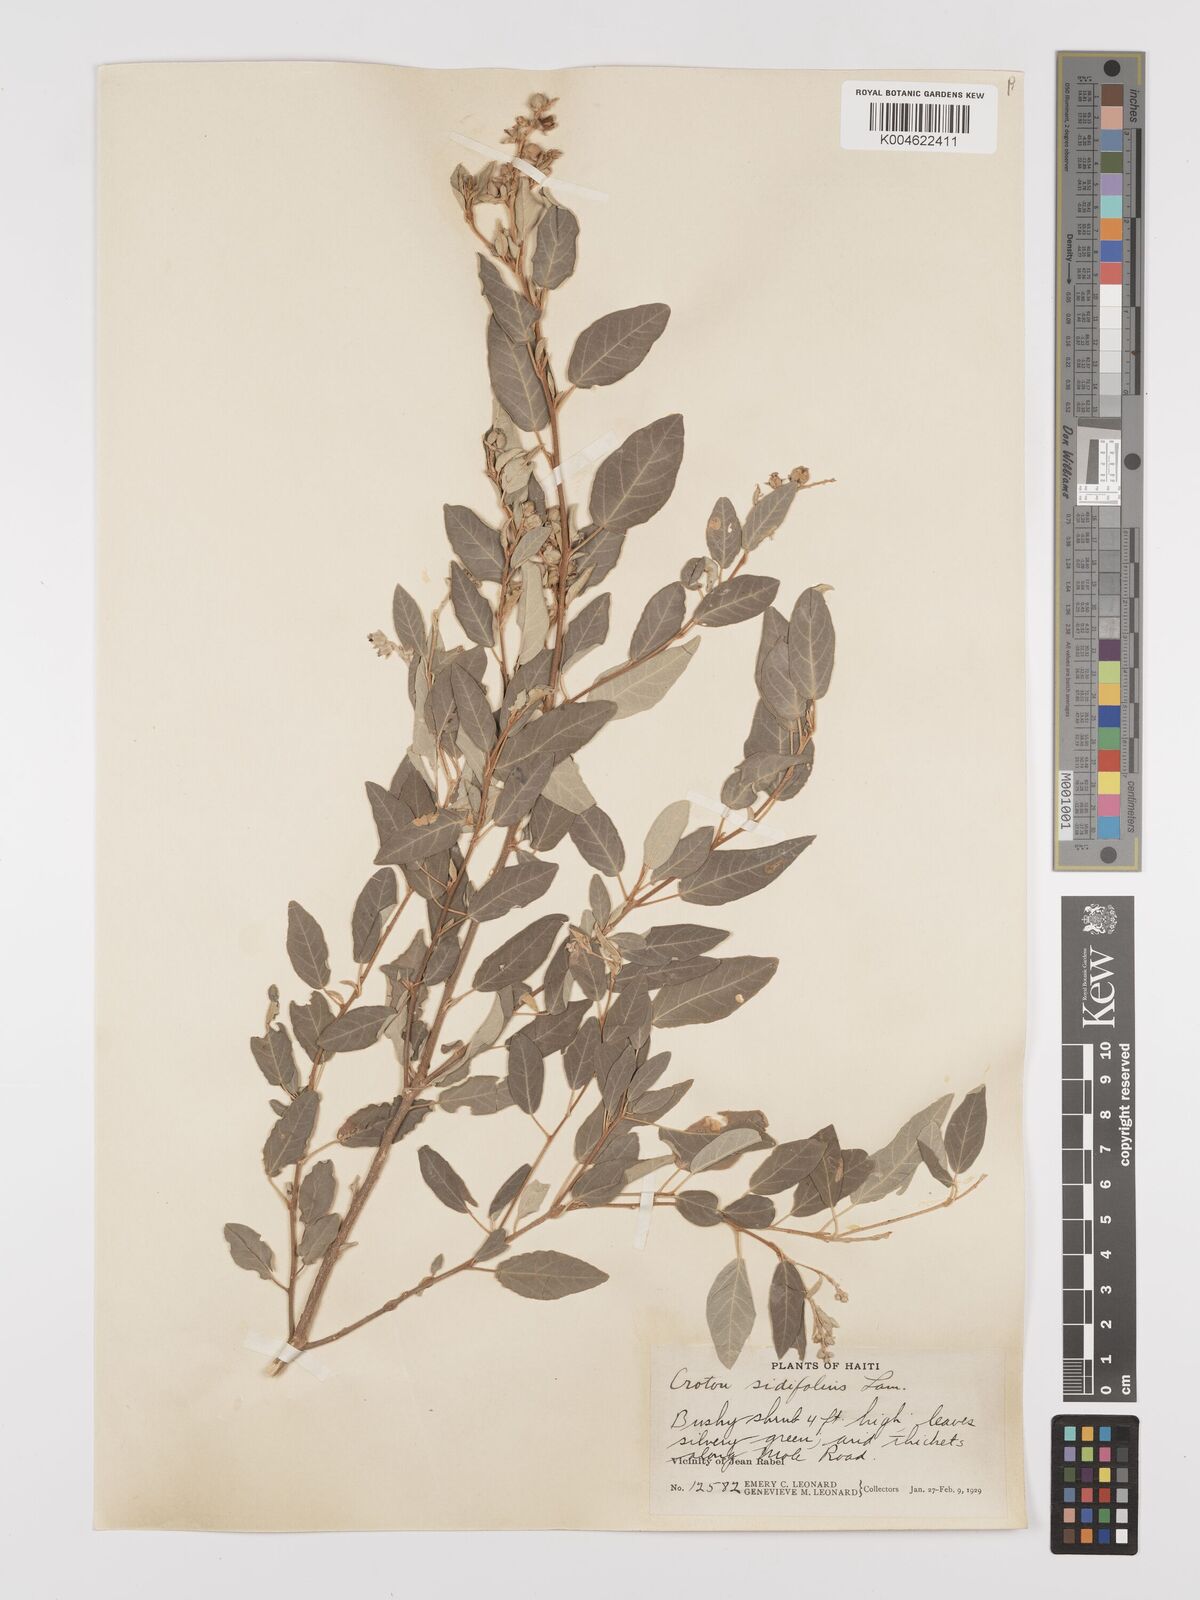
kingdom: Plantae
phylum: Tracheophyta
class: Magnoliopsida
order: Malpighiales
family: Euphorbiaceae
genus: Croton
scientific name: Croton sidifolius
